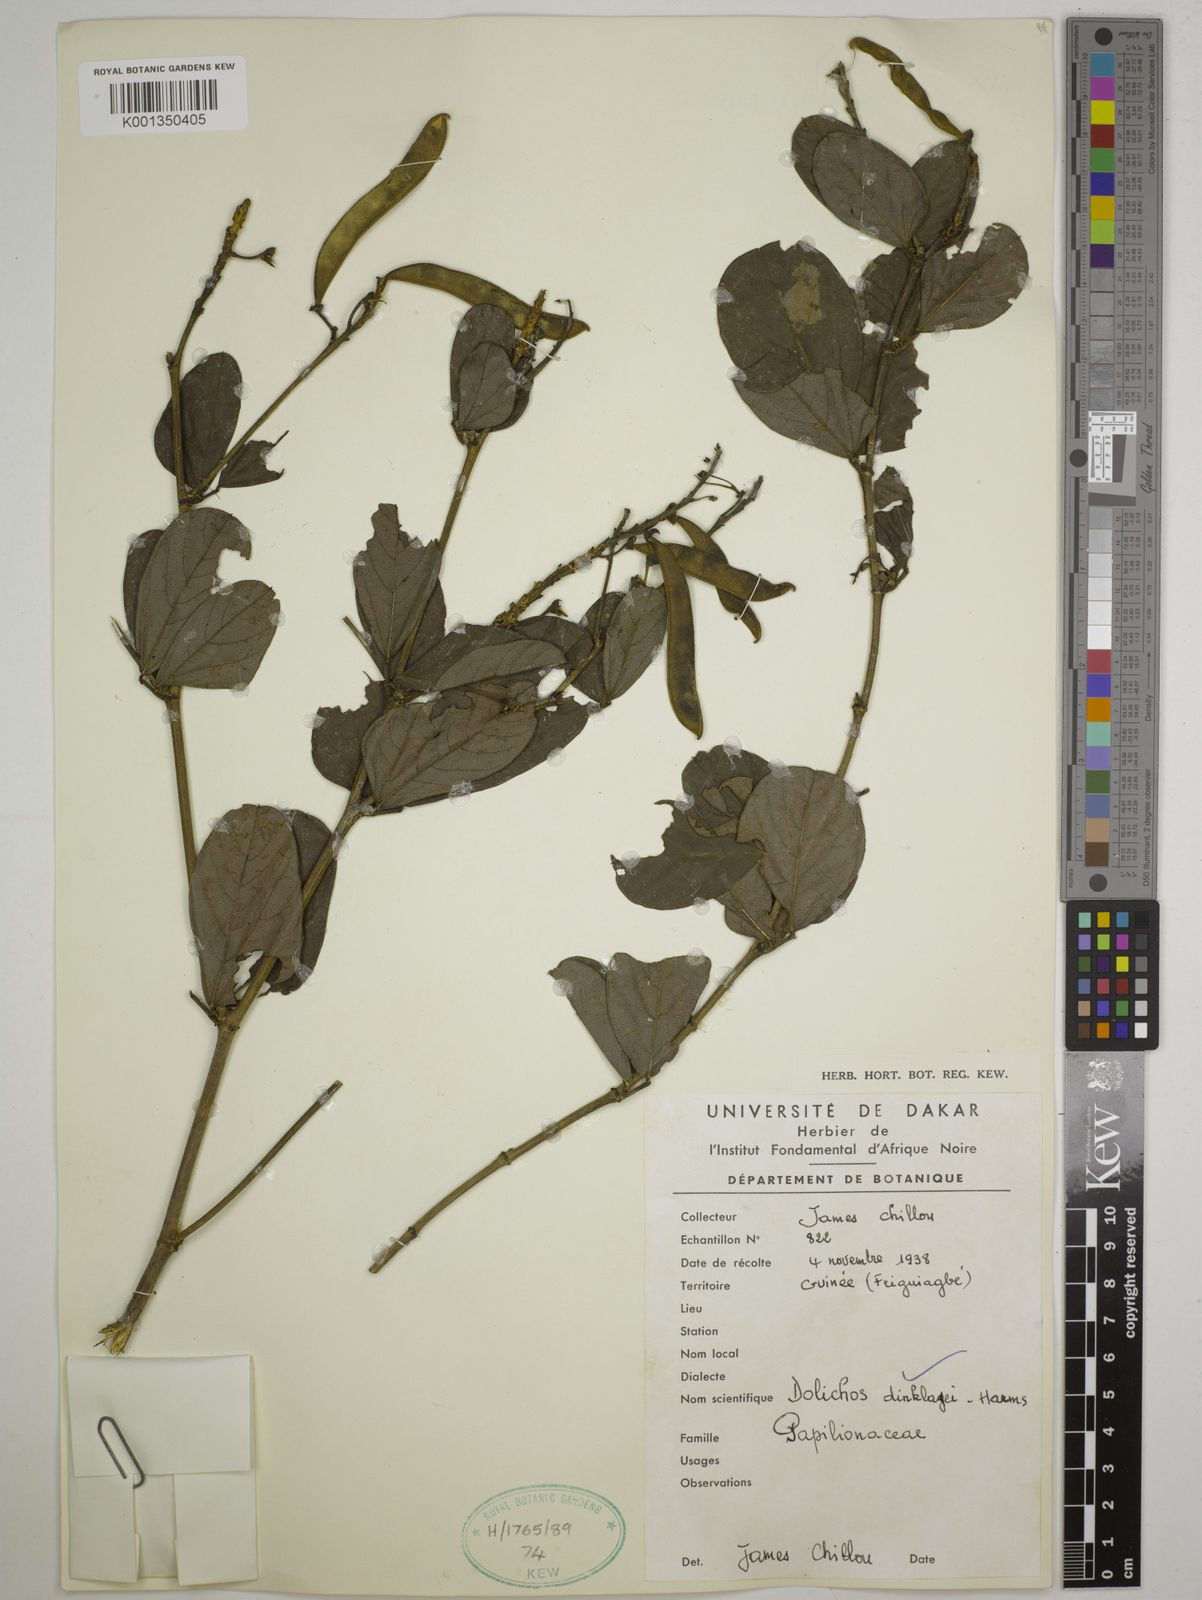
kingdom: Plantae
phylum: Tracheophyta
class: Magnoliopsida
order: Fabales
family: Fabaceae
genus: Dolichos
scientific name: Dolichos dinklagei
